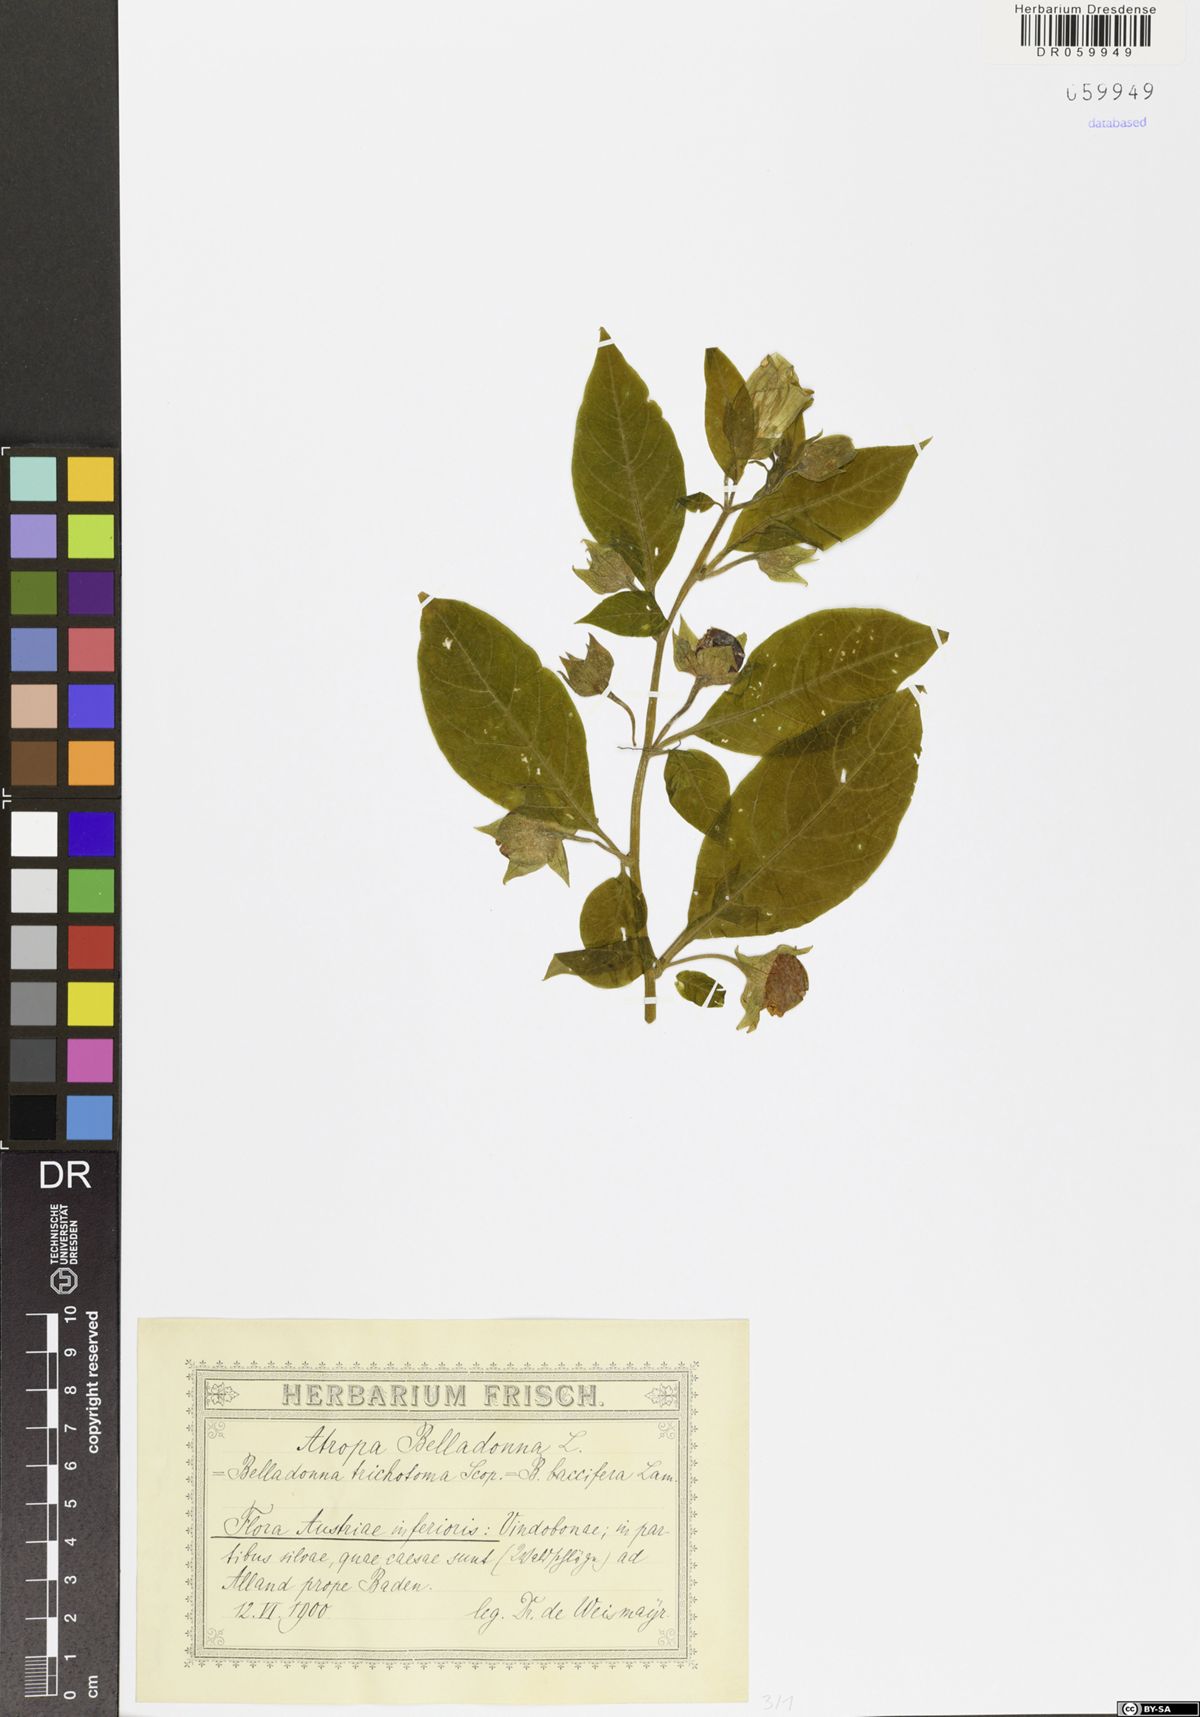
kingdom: Plantae
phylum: Tracheophyta
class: Magnoliopsida
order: Solanales
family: Solanaceae
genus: Atropa
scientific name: Atropa belladonna
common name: Deadly nightshade
